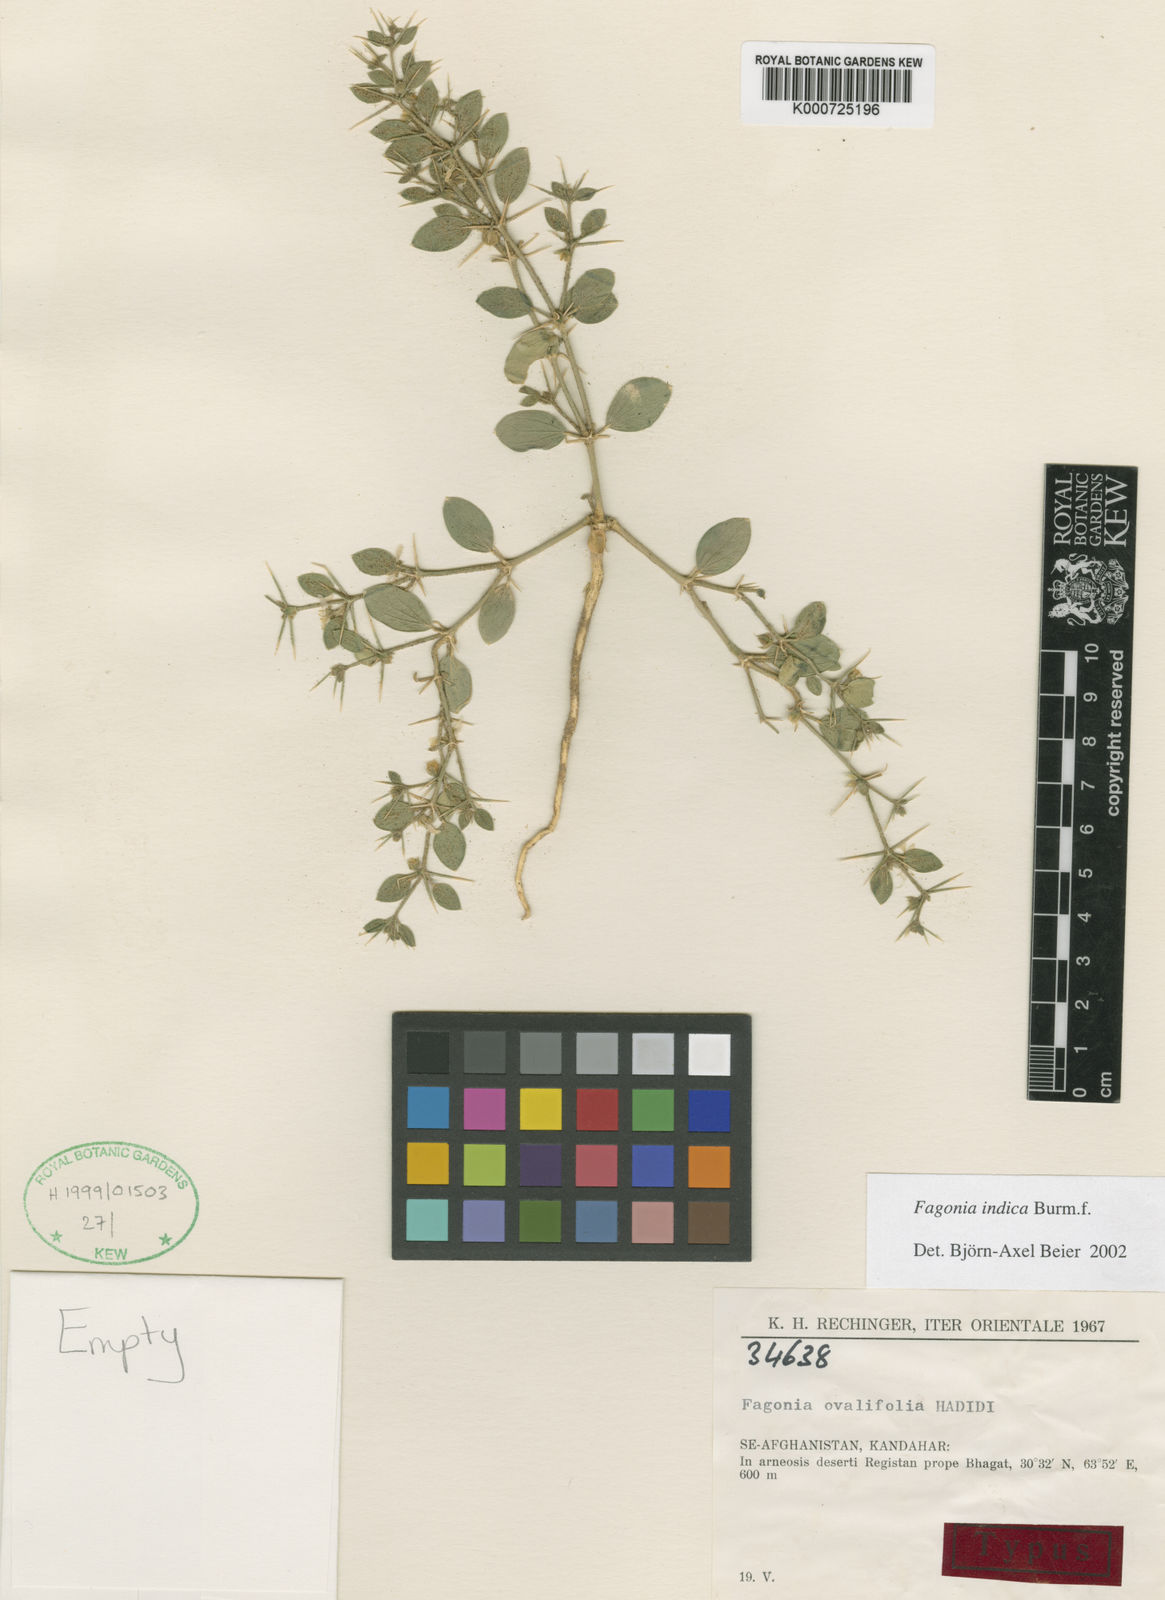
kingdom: Plantae
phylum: Tracheophyta
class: Magnoliopsida
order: Zygophyllales
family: Zygophyllaceae
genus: Fagonia
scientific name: Fagonia indica
